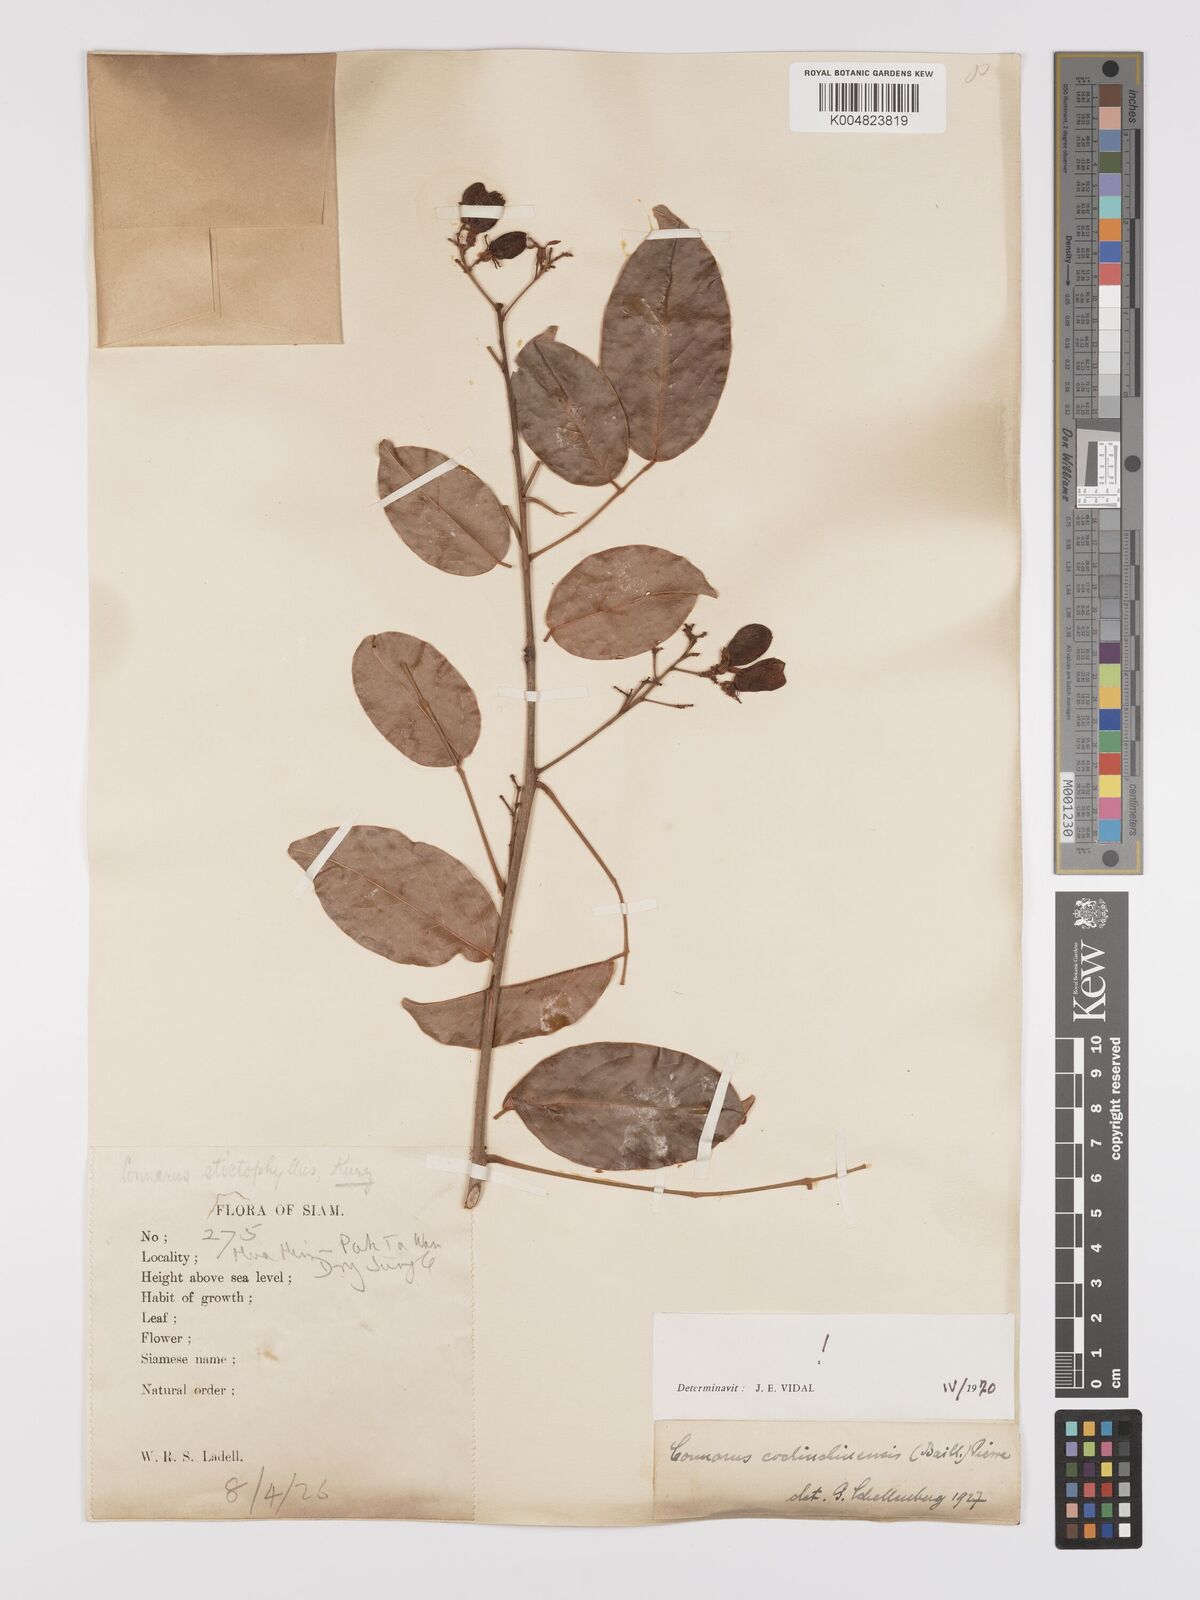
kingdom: Plantae
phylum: Tracheophyta
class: Magnoliopsida
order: Oxalidales
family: Connaraceae
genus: Connarus
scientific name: Connarus cochinchinensis
